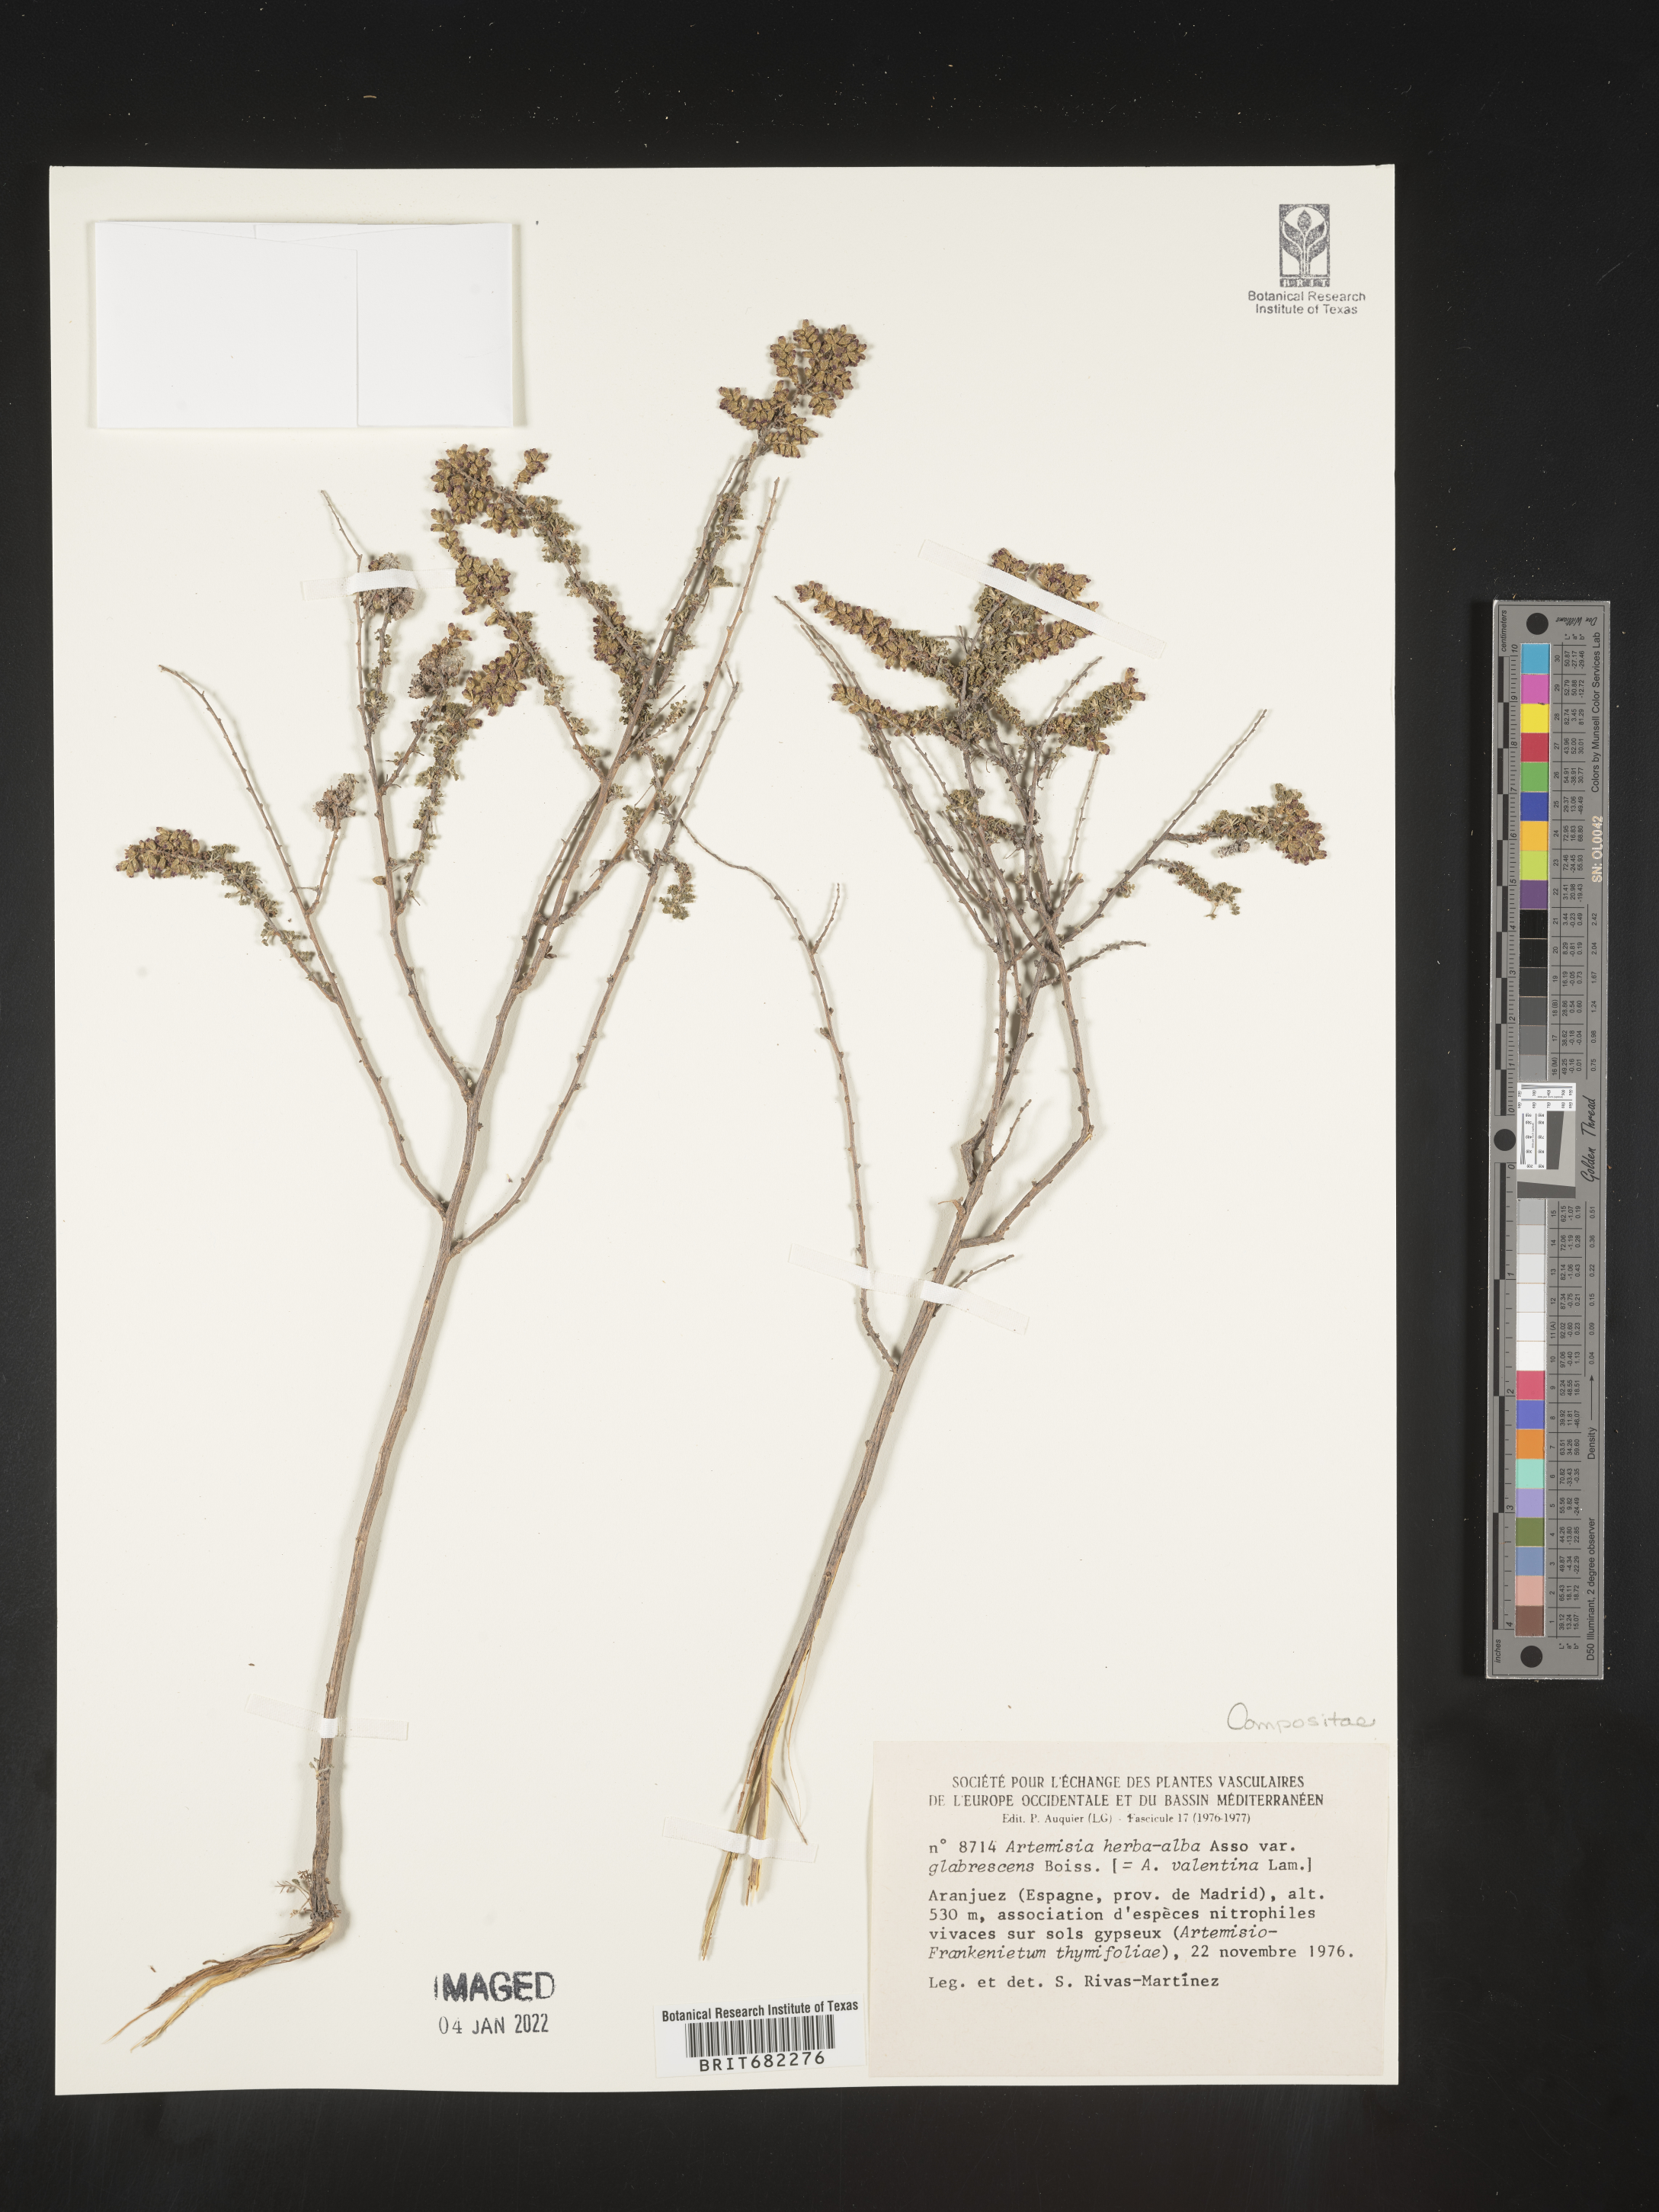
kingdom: Plantae
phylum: Tracheophyta
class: Magnoliopsida
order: Asterales
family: Asteraceae
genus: Artemisia
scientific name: Artemisia
